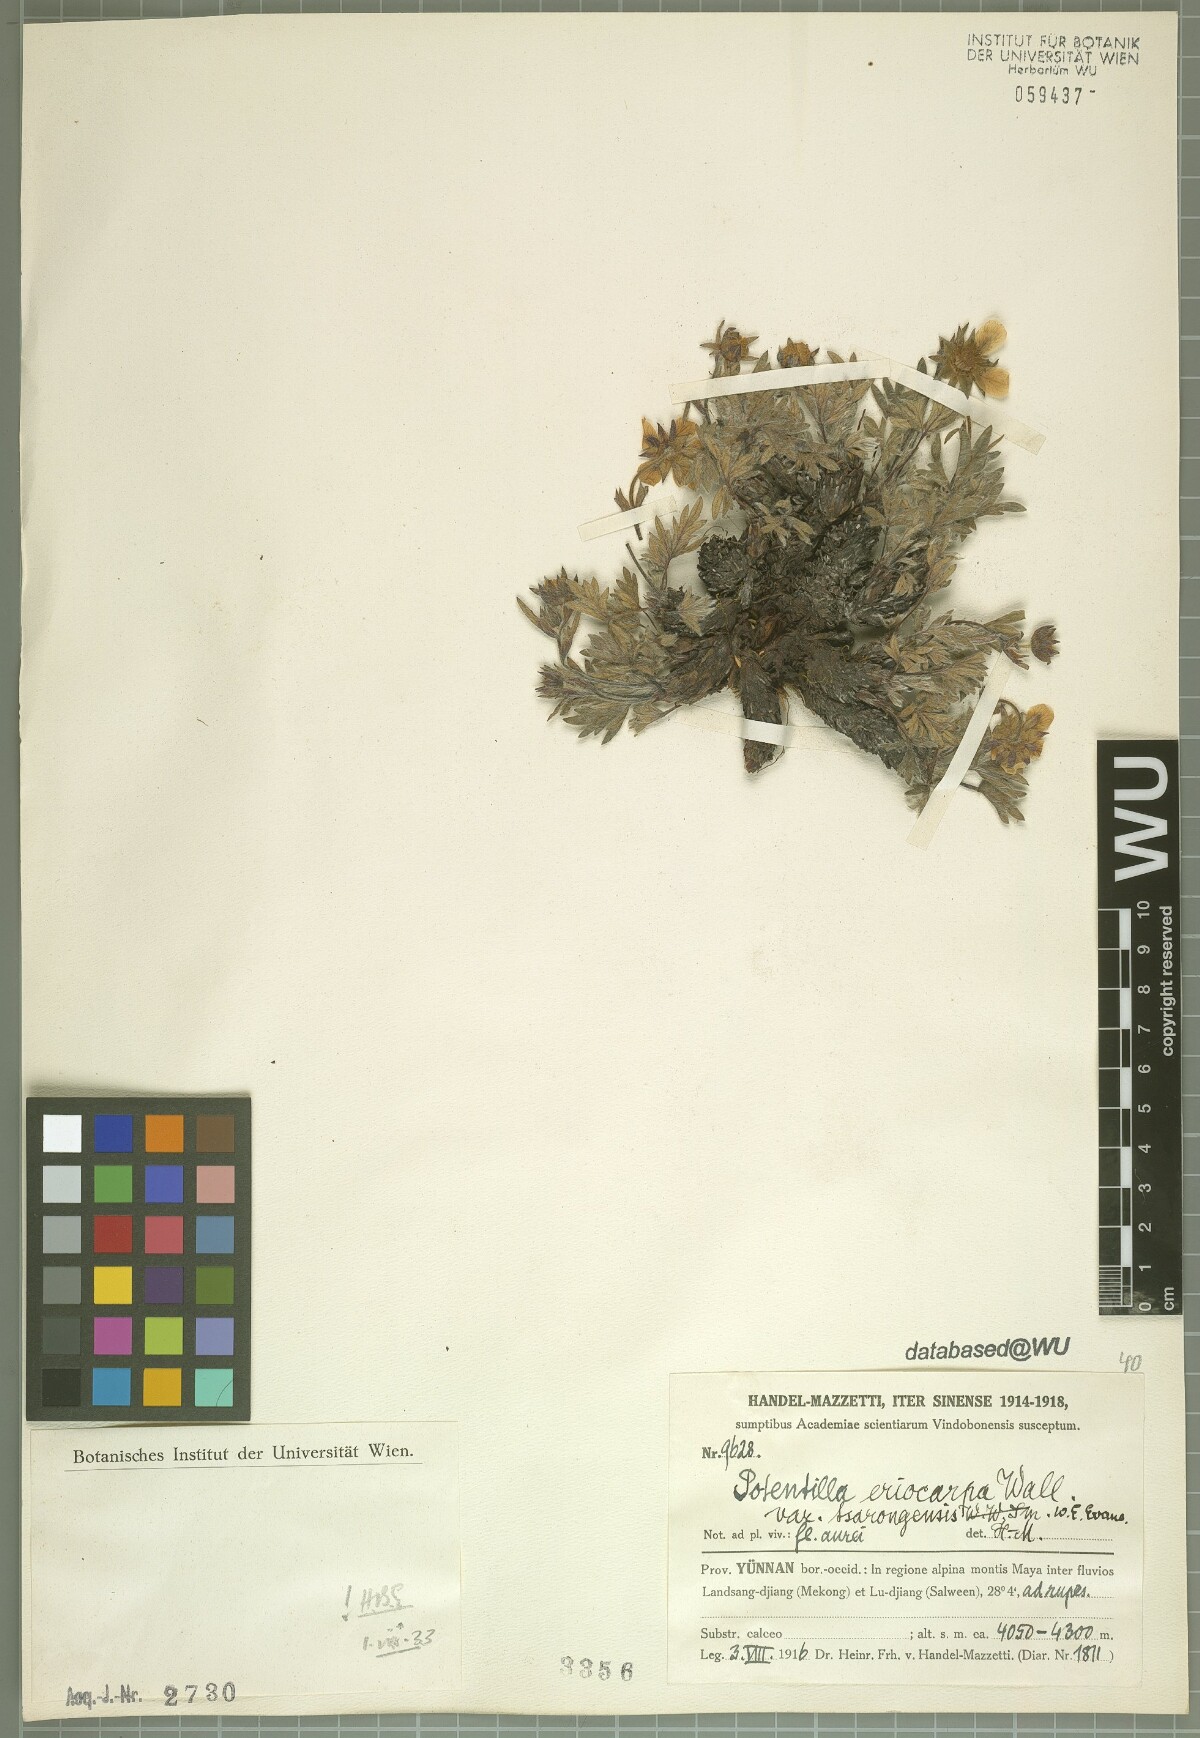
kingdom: Plantae
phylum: Tracheophyta
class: Magnoliopsida
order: Rosales
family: Rosaceae
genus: Potentilla
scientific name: Potentilla eriocarpa
